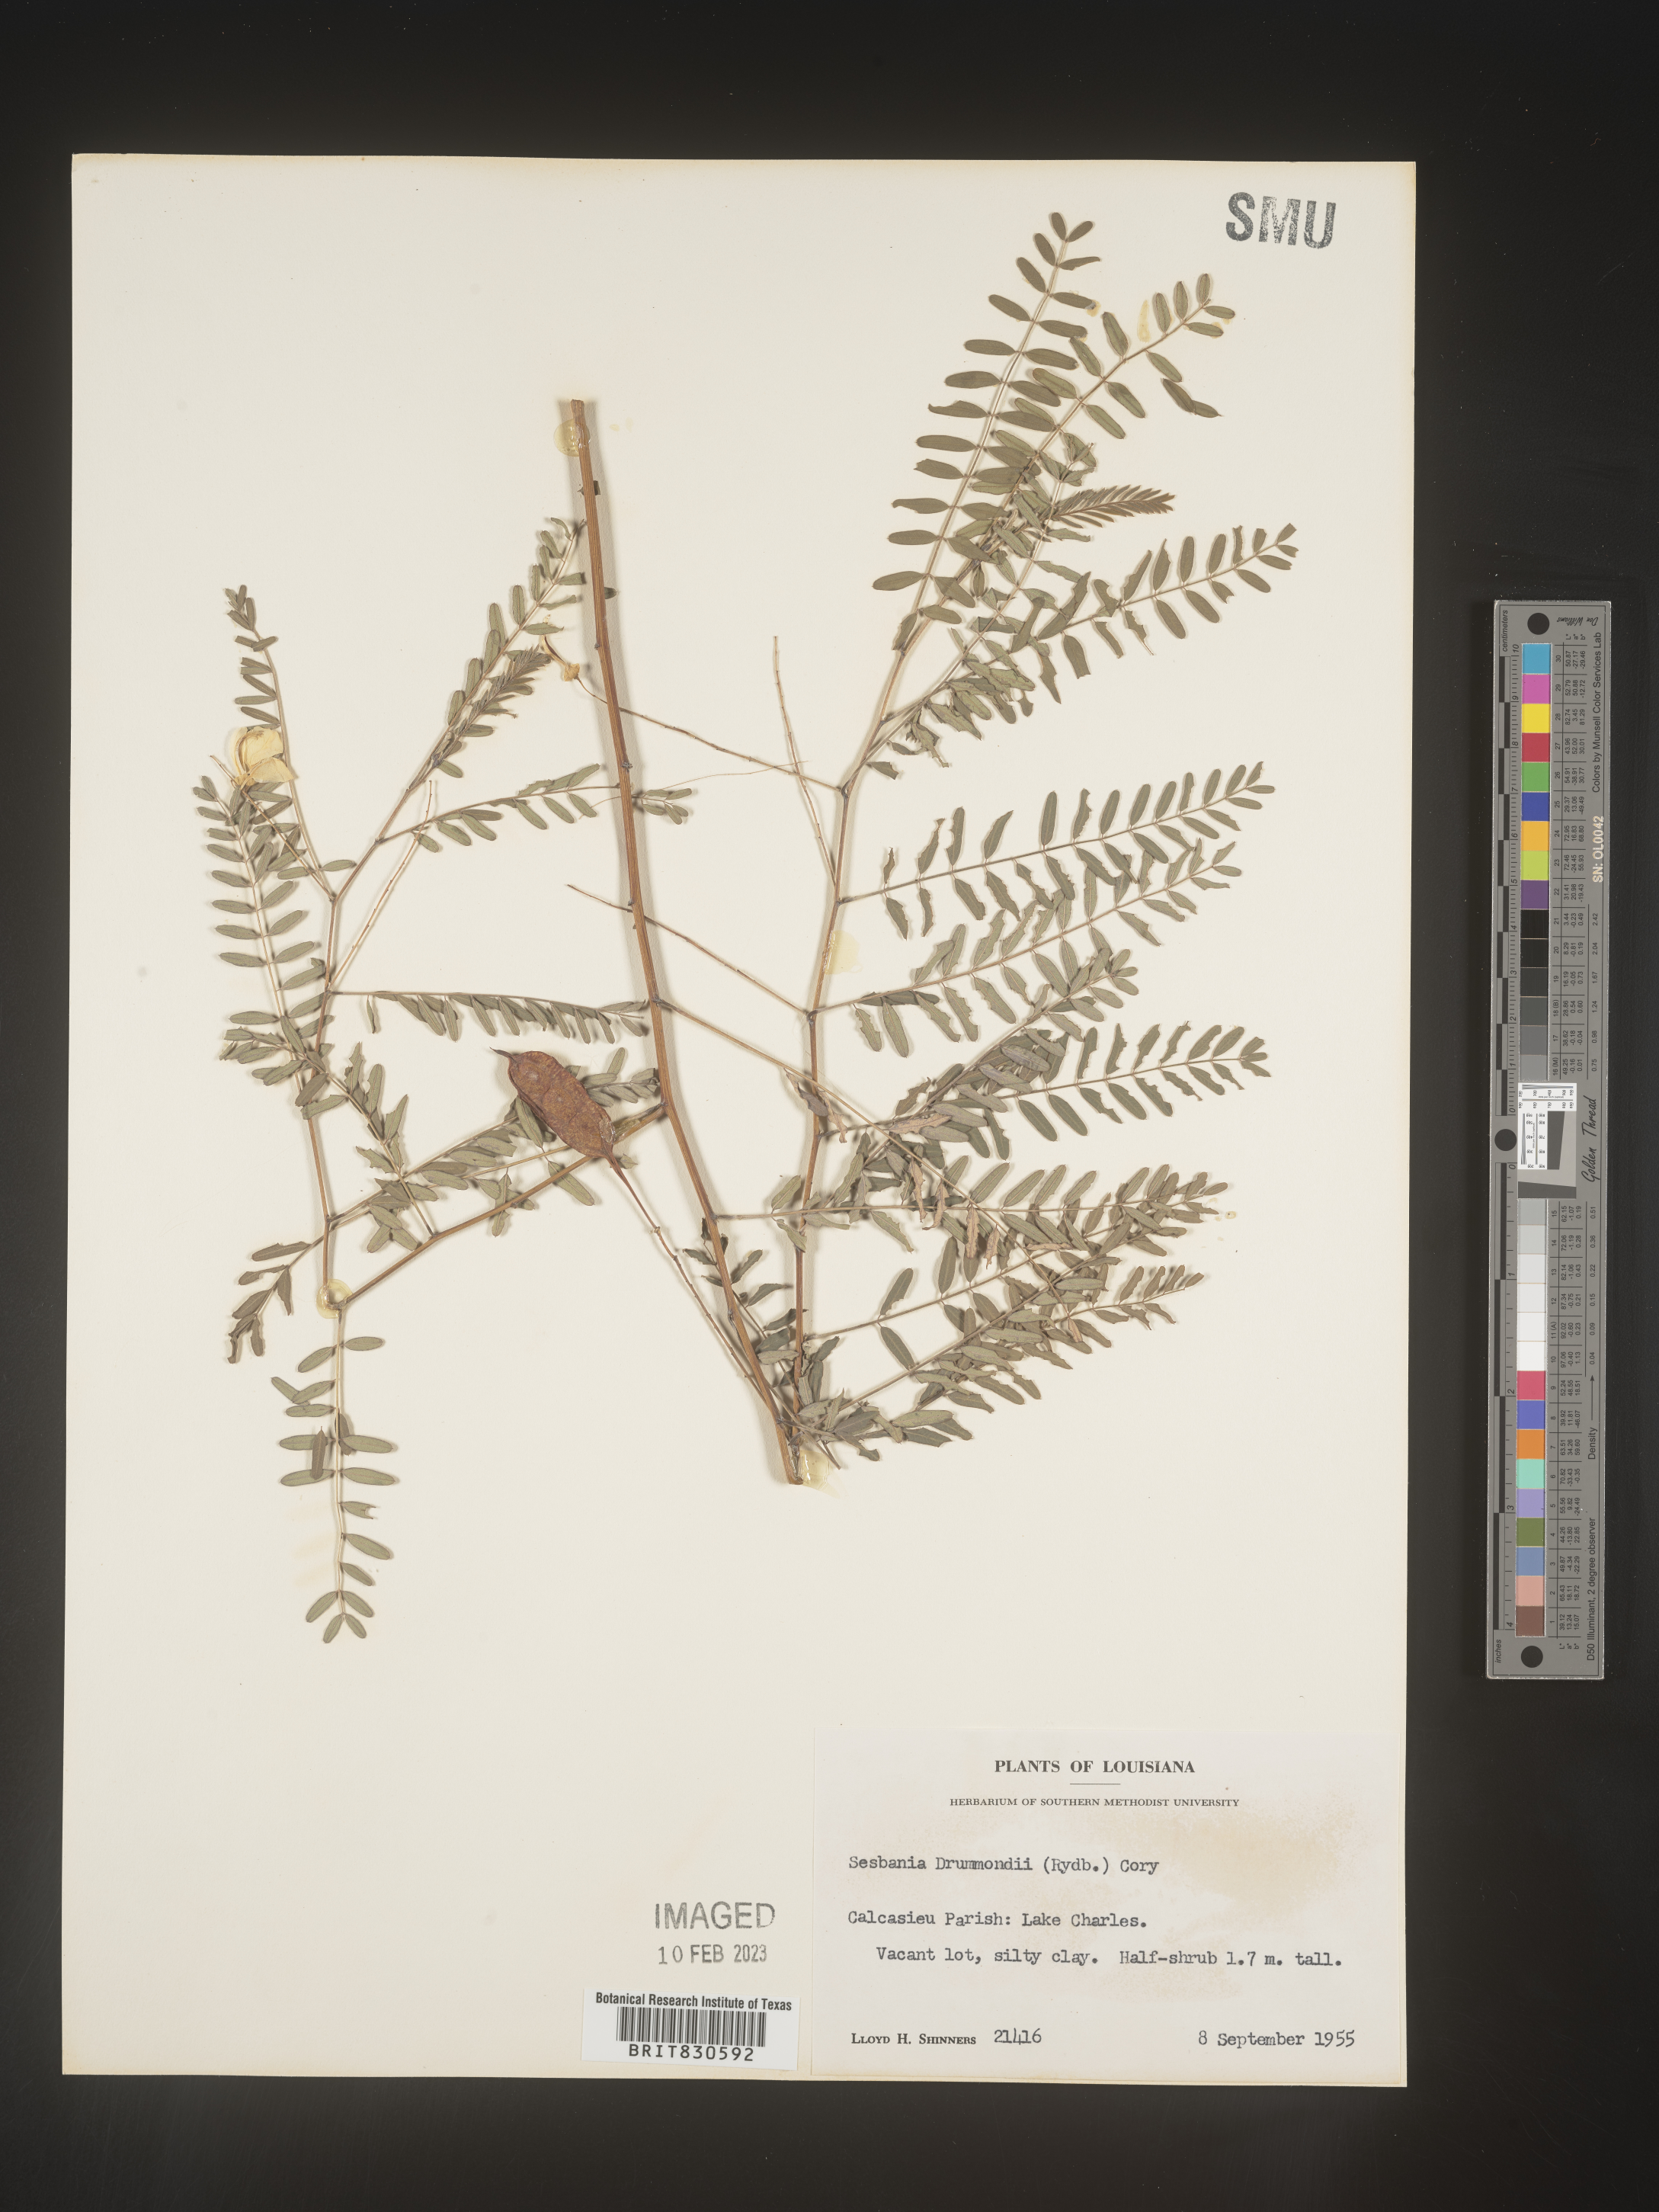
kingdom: Plantae
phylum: Tracheophyta
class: Magnoliopsida
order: Fabales
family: Fabaceae
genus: Sesbania
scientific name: Sesbania drummondii
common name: Poison-bean
